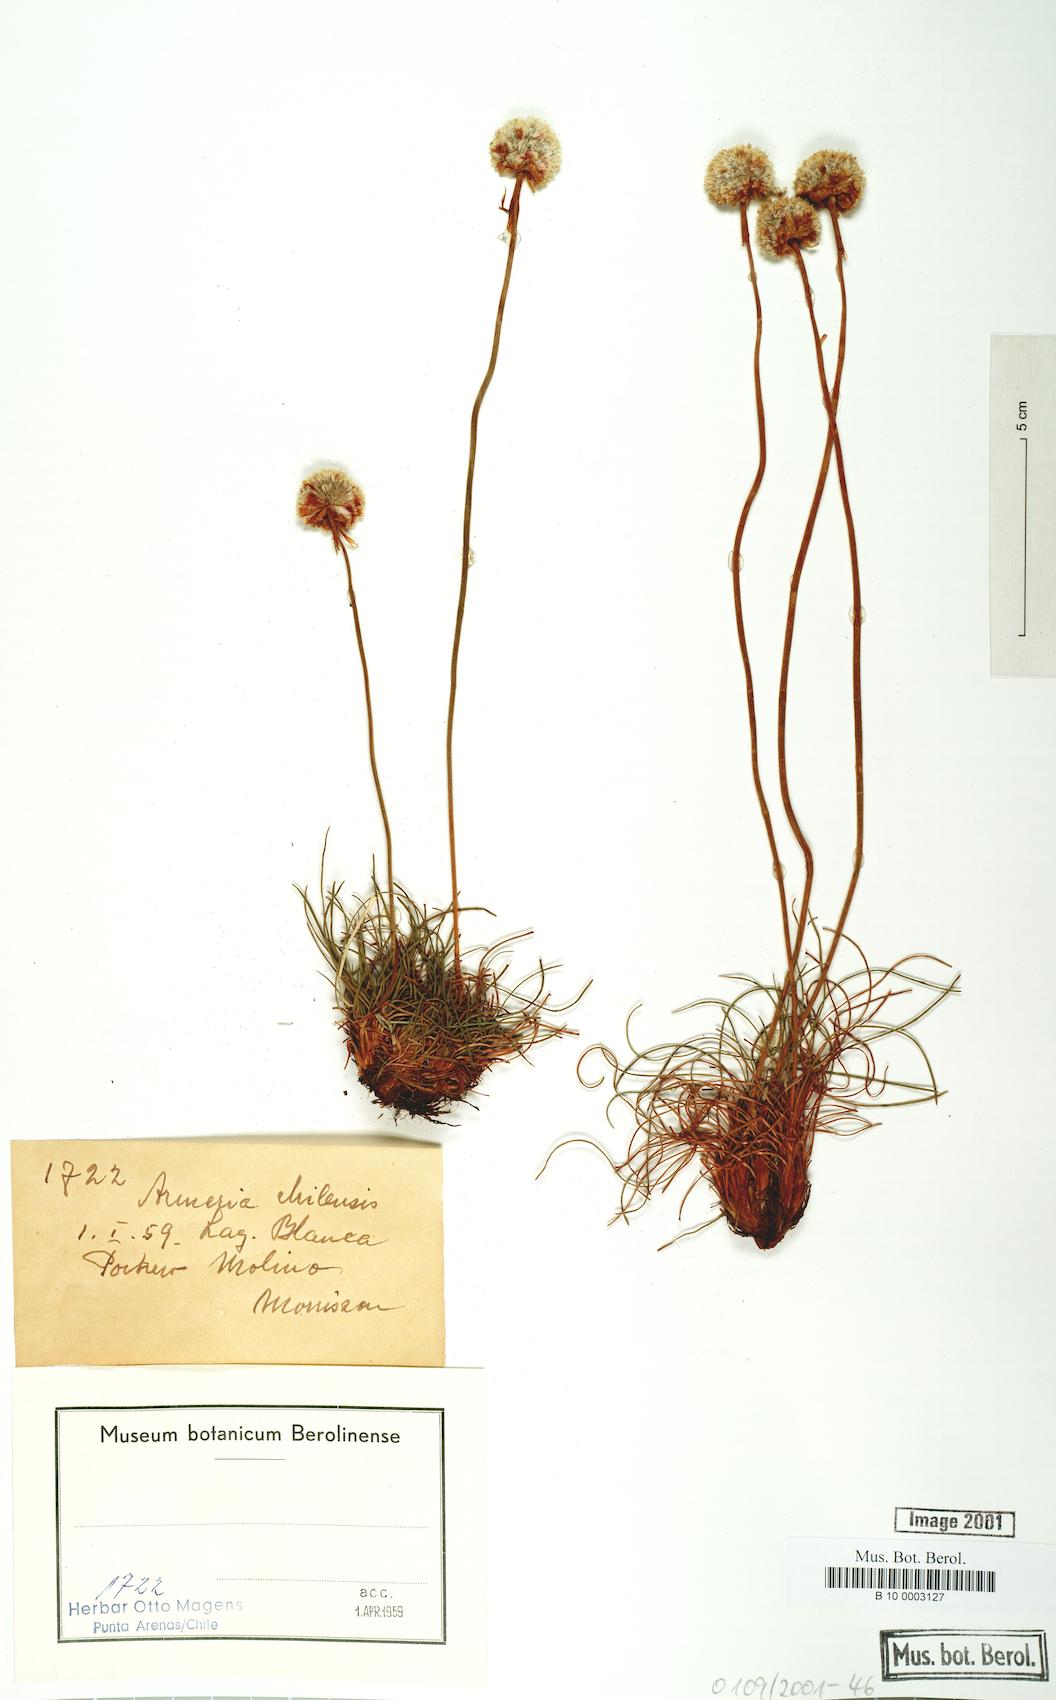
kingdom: Plantae
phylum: Tracheophyta
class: Magnoliopsida
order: Caryophyllales
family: Plumbaginaceae
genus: Armeria
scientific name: Armeria curvifolia
